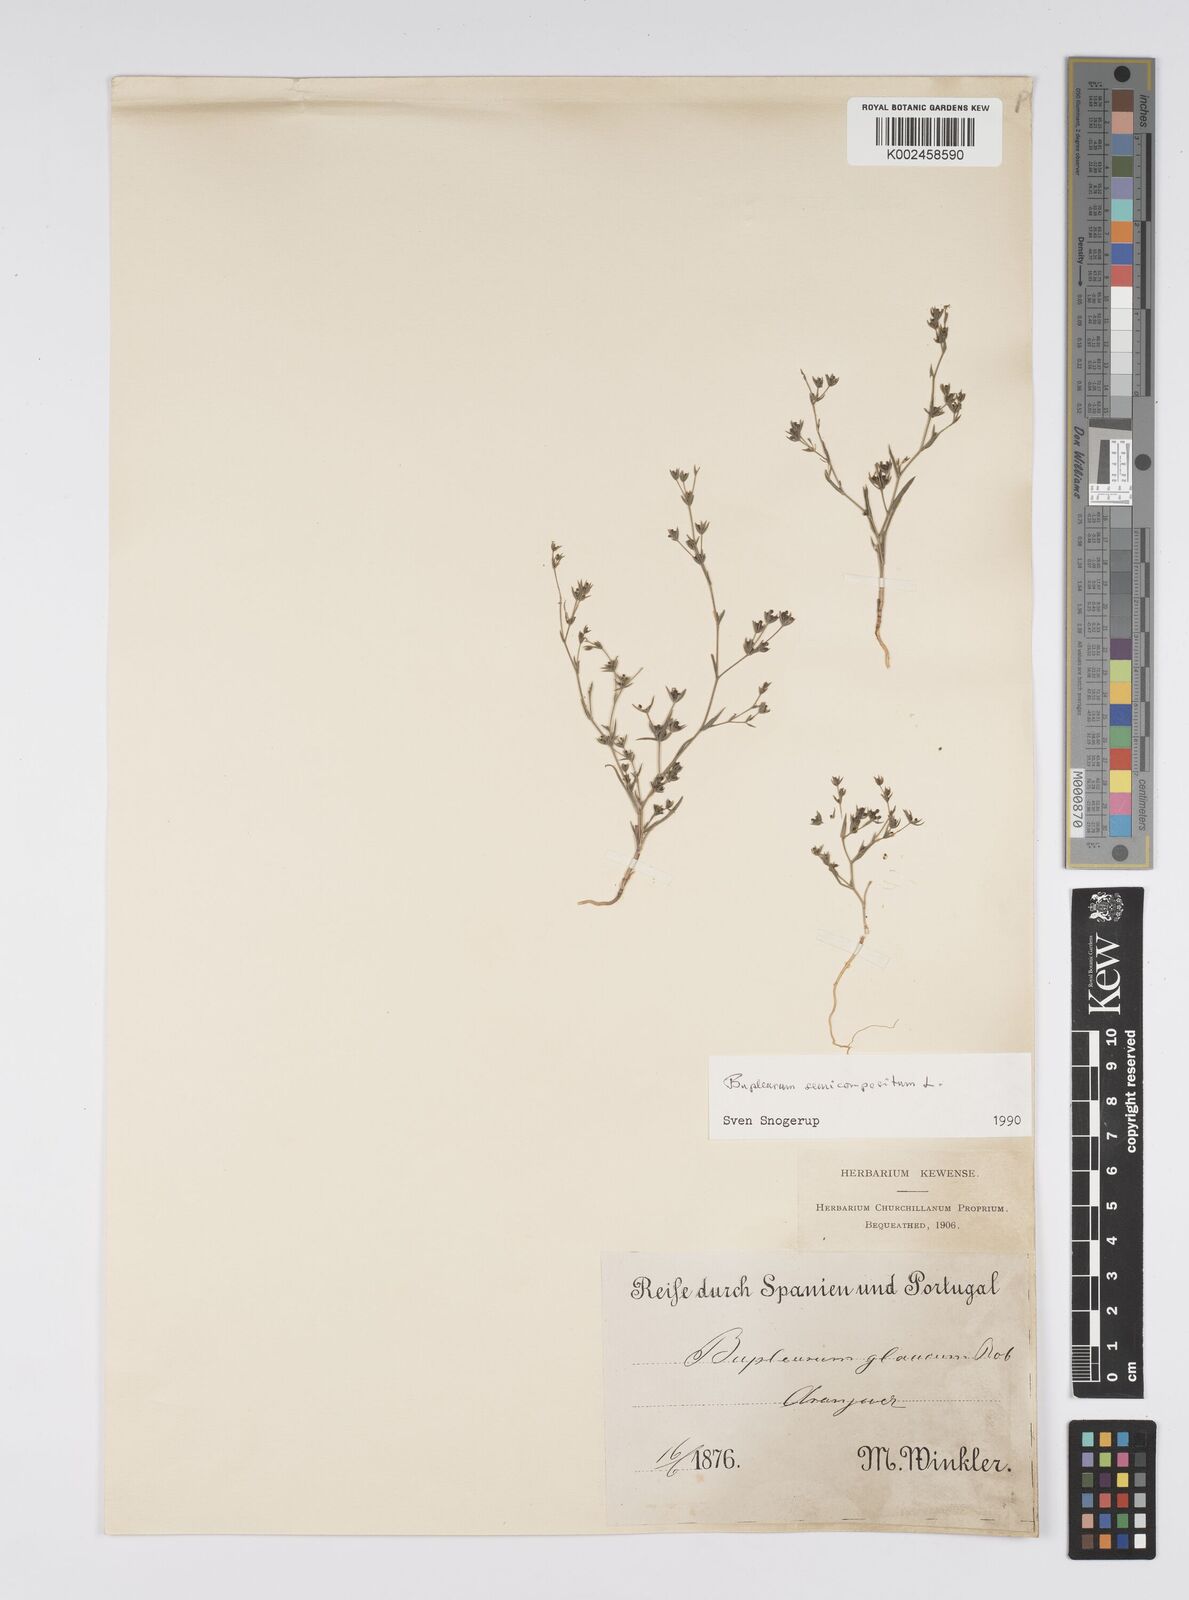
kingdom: Plantae
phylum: Tracheophyta
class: Magnoliopsida
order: Apiales
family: Apiaceae
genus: Bupleurum
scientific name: Bupleurum semicompositum
